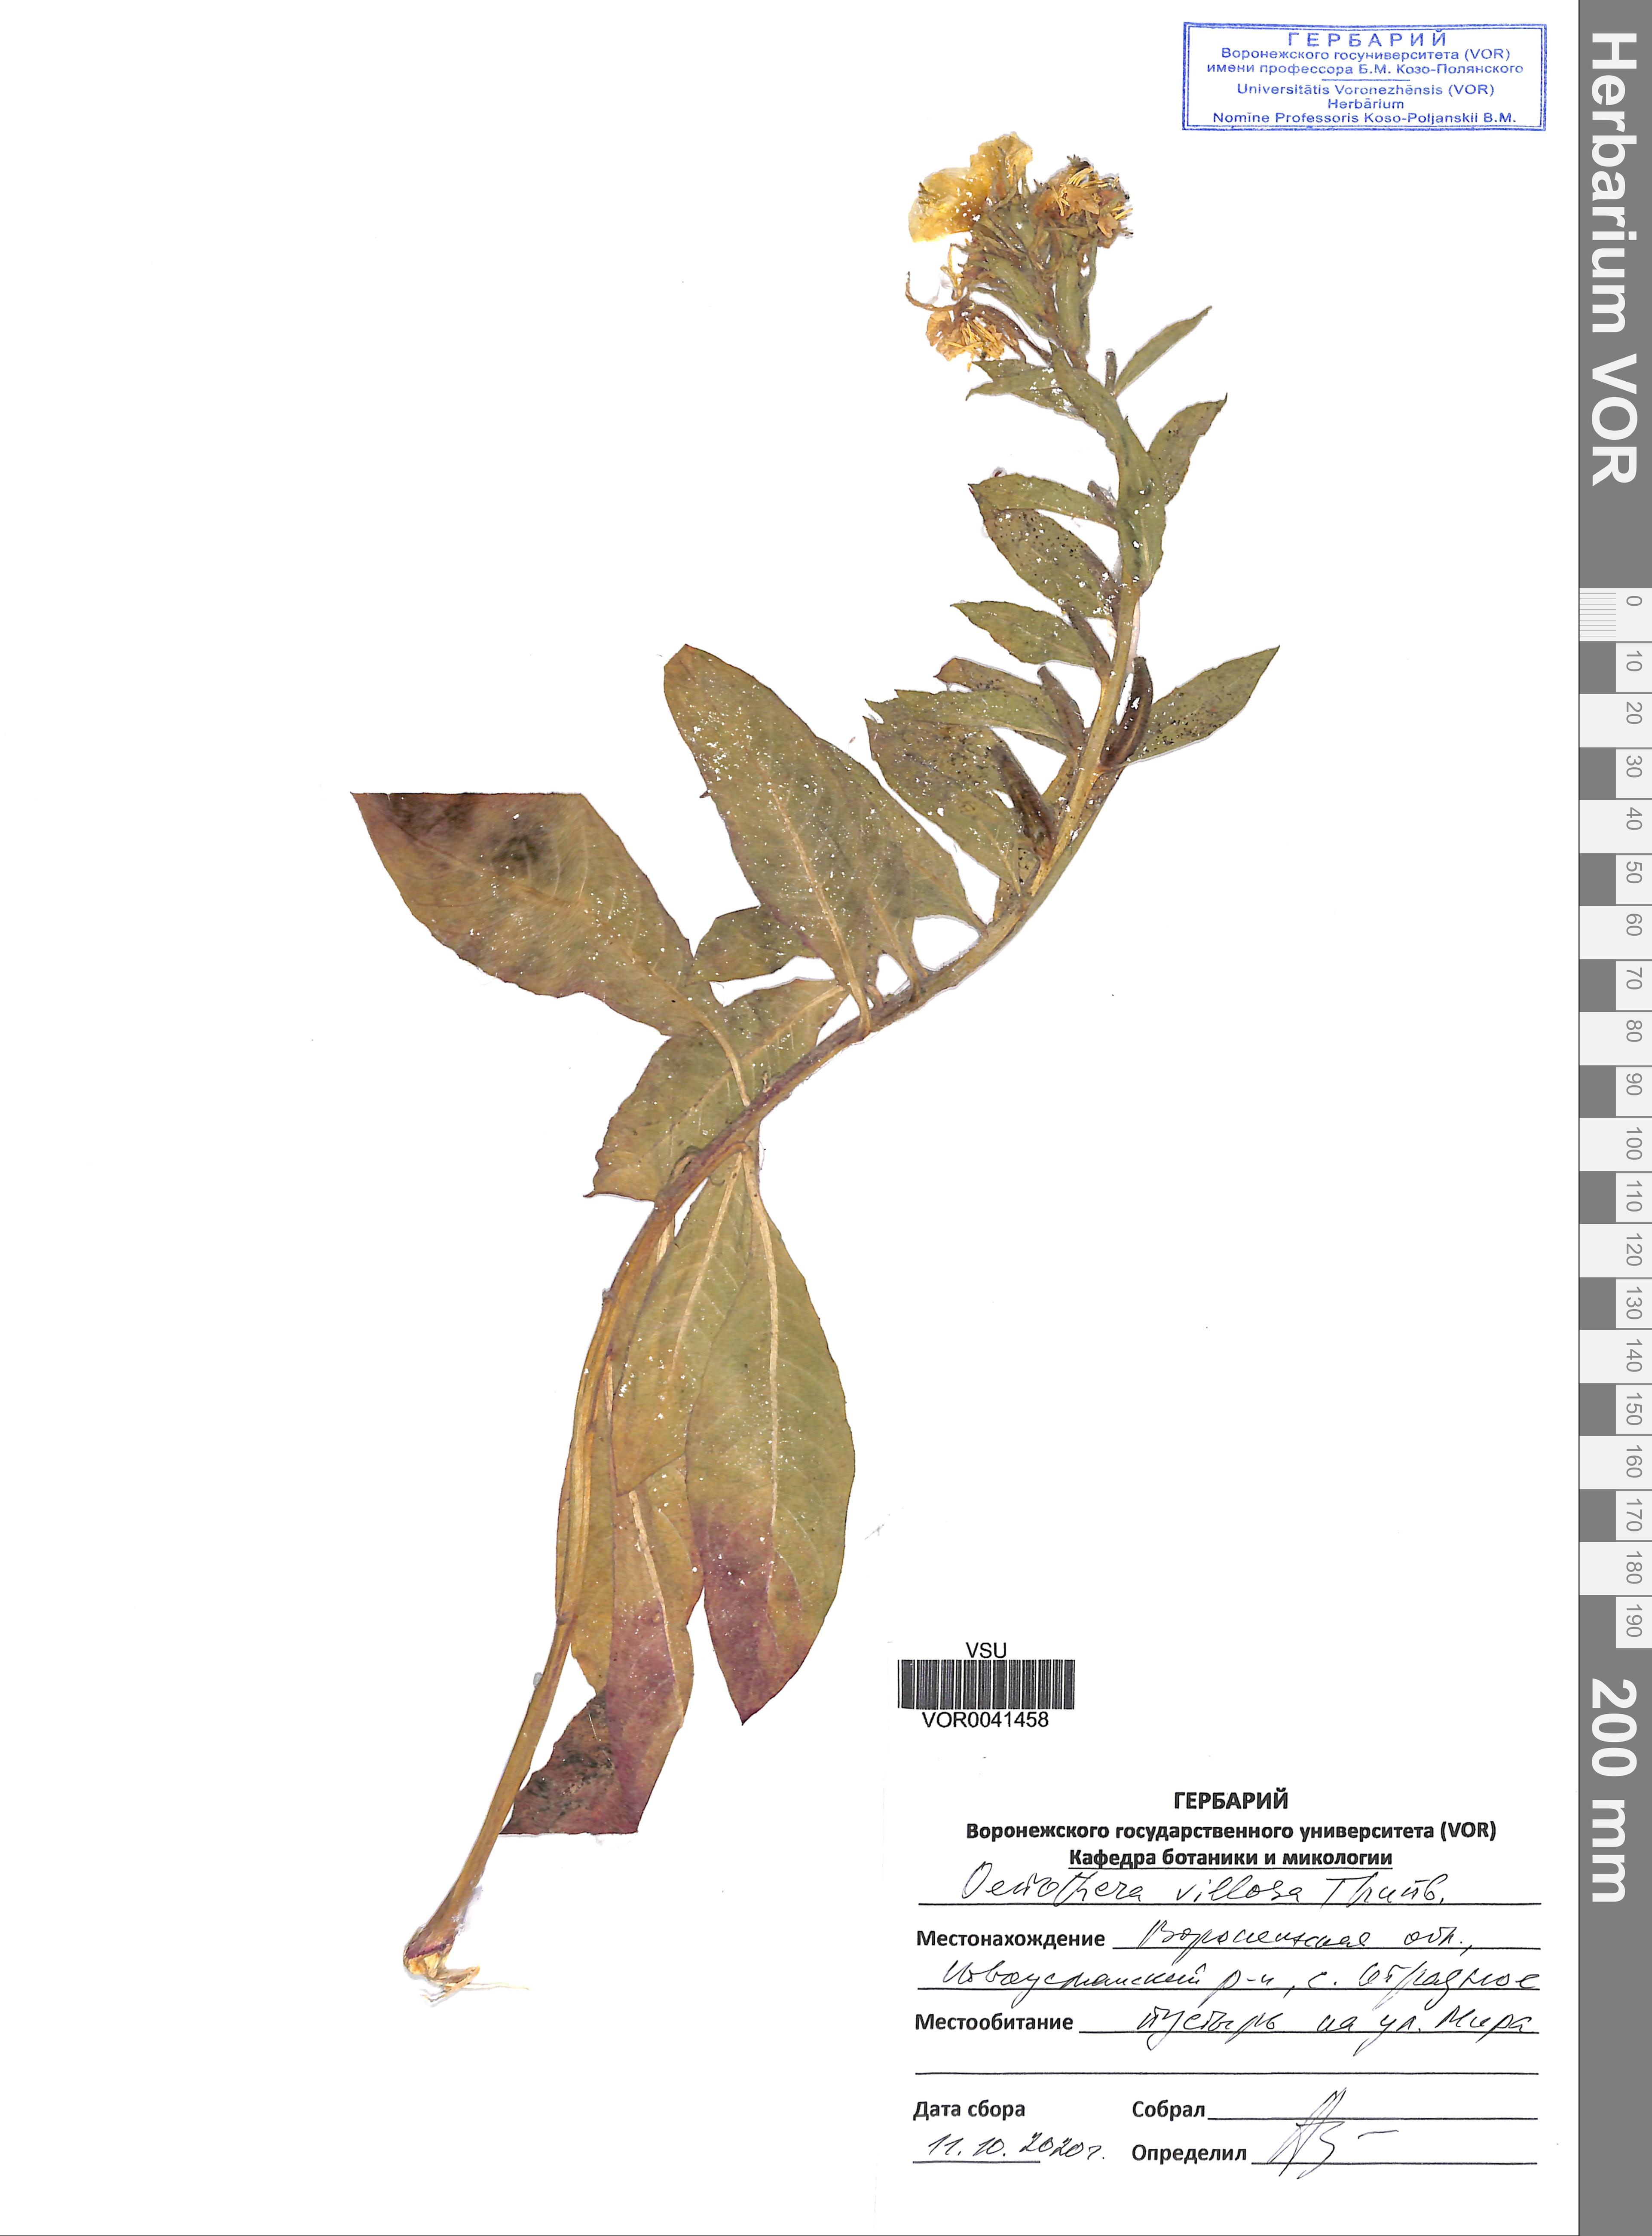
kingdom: Plantae
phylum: Tracheophyta
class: Magnoliopsida
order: Myrtales
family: Onagraceae
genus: Oenothera
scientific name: Oenothera villosa
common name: Hairy evening-primrose
